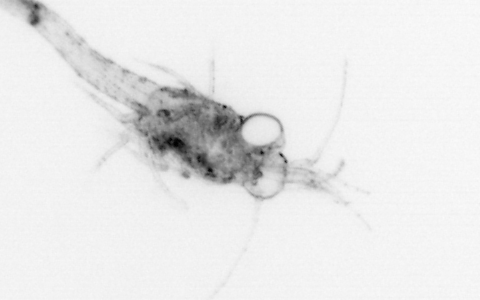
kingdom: Animalia
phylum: Arthropoda
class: Malacostraca
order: Decapoda
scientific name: Decapoda
